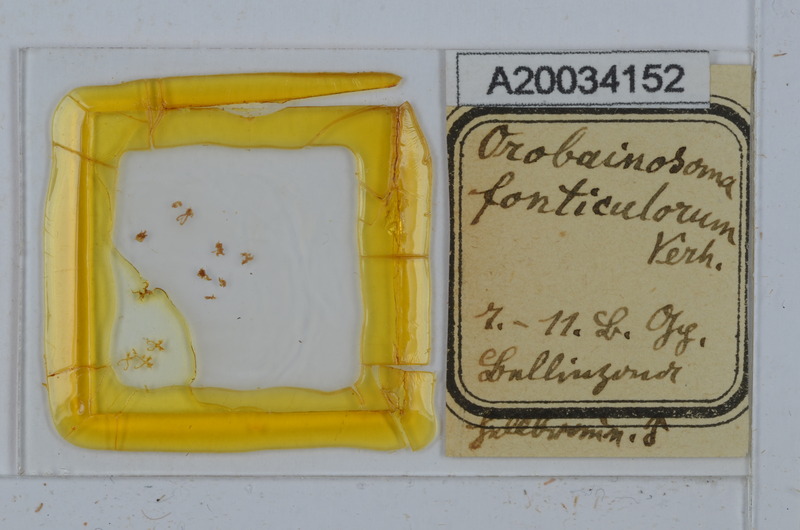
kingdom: Animalia
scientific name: Animalia
